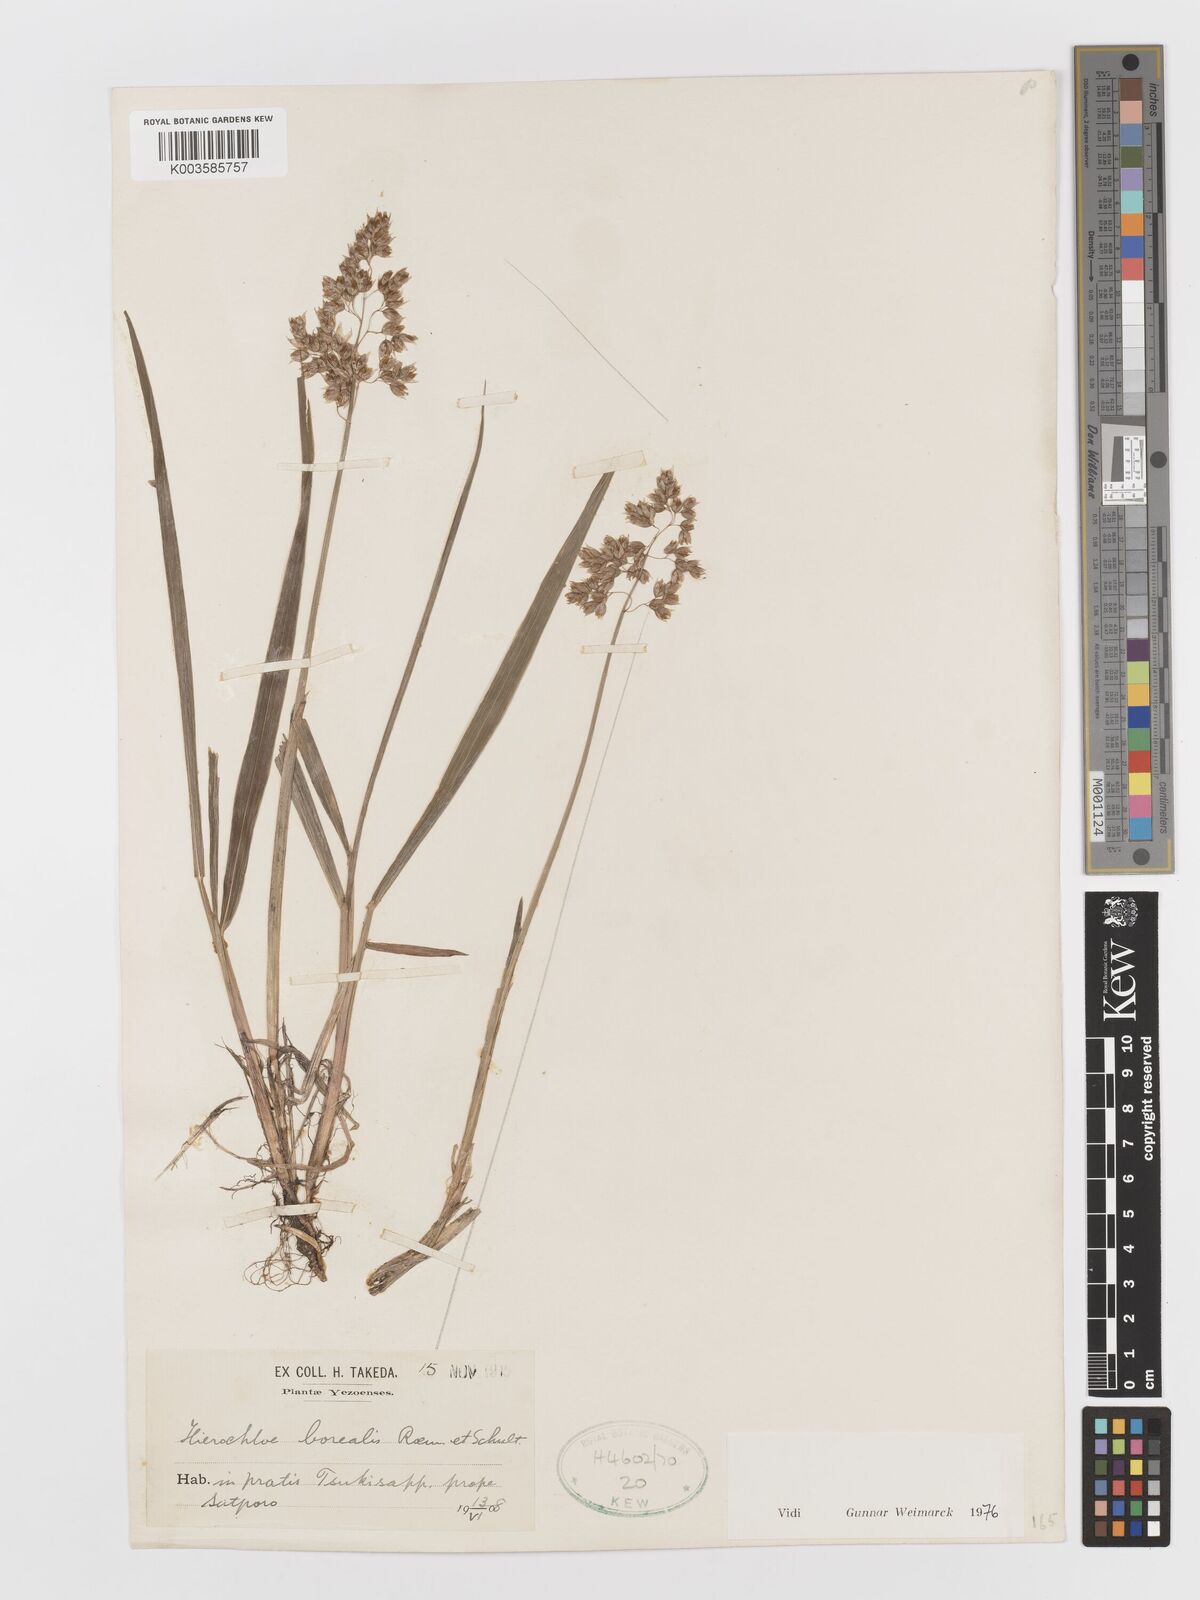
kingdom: Plantae
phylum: Tracheophyta
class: Liliopsida
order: Poales
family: Poaceae
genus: Anthoxanthum
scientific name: Anthoxanthum nitens
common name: Holy grass
